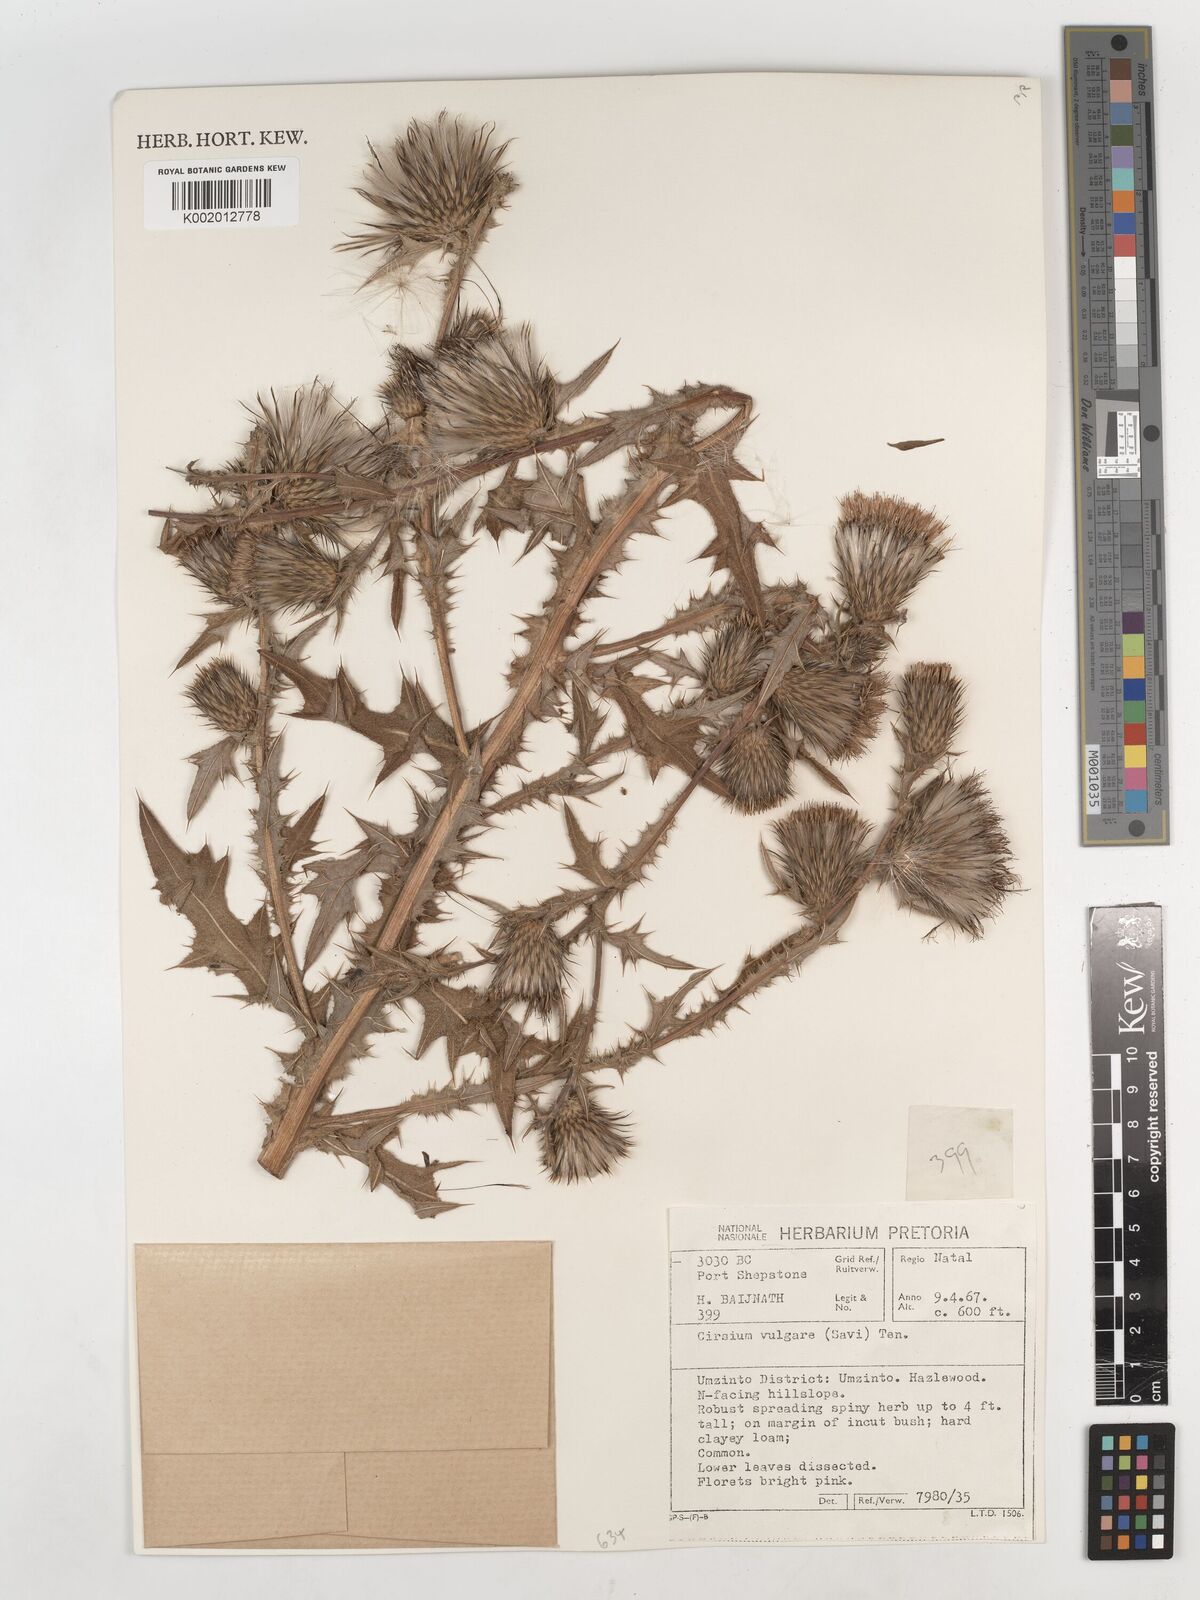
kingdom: Plantae
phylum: Tracheophyta
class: Magnoliopsida
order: Asterales
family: Asteraceae
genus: Cirsium
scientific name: Cirsium vulgare
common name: Bull thistle
